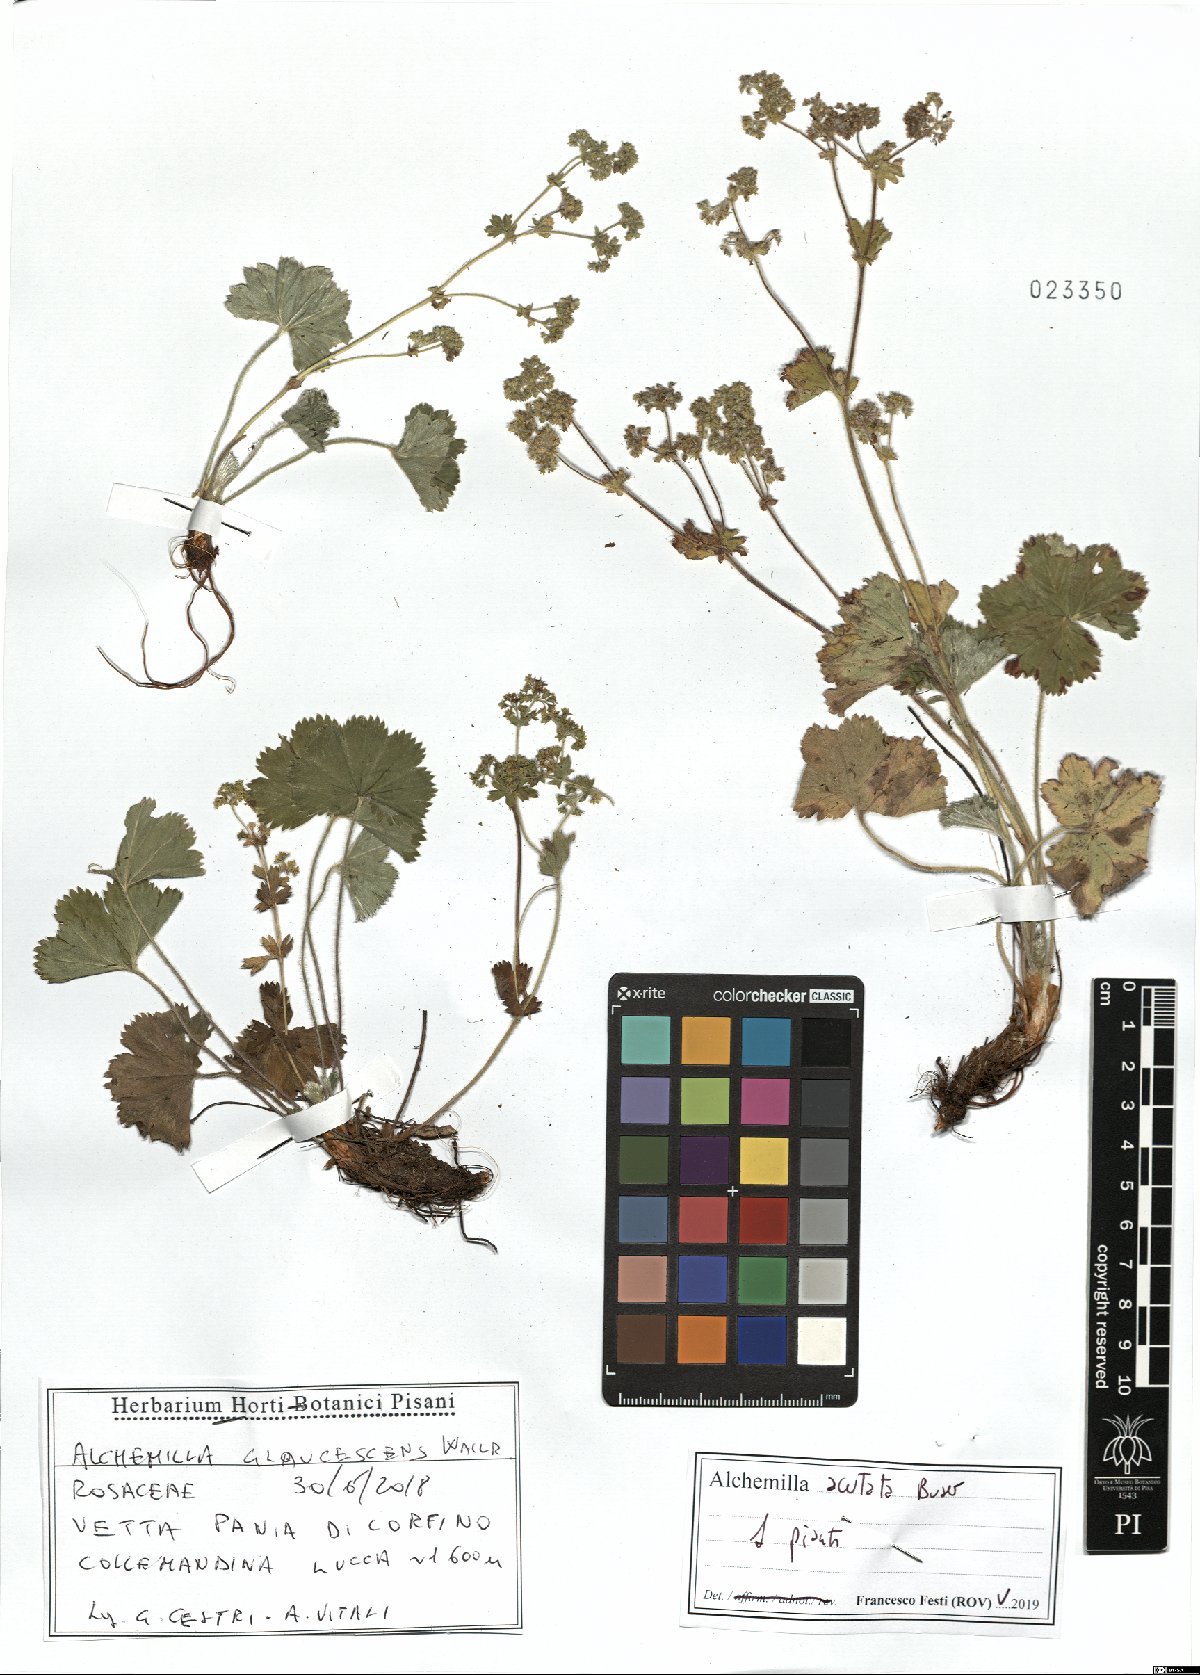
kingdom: Plantae
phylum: Tracheophyta
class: Magnoliopsida
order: Rosales
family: Rosaceae
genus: Alchemilla
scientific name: Alchemilla acutata
